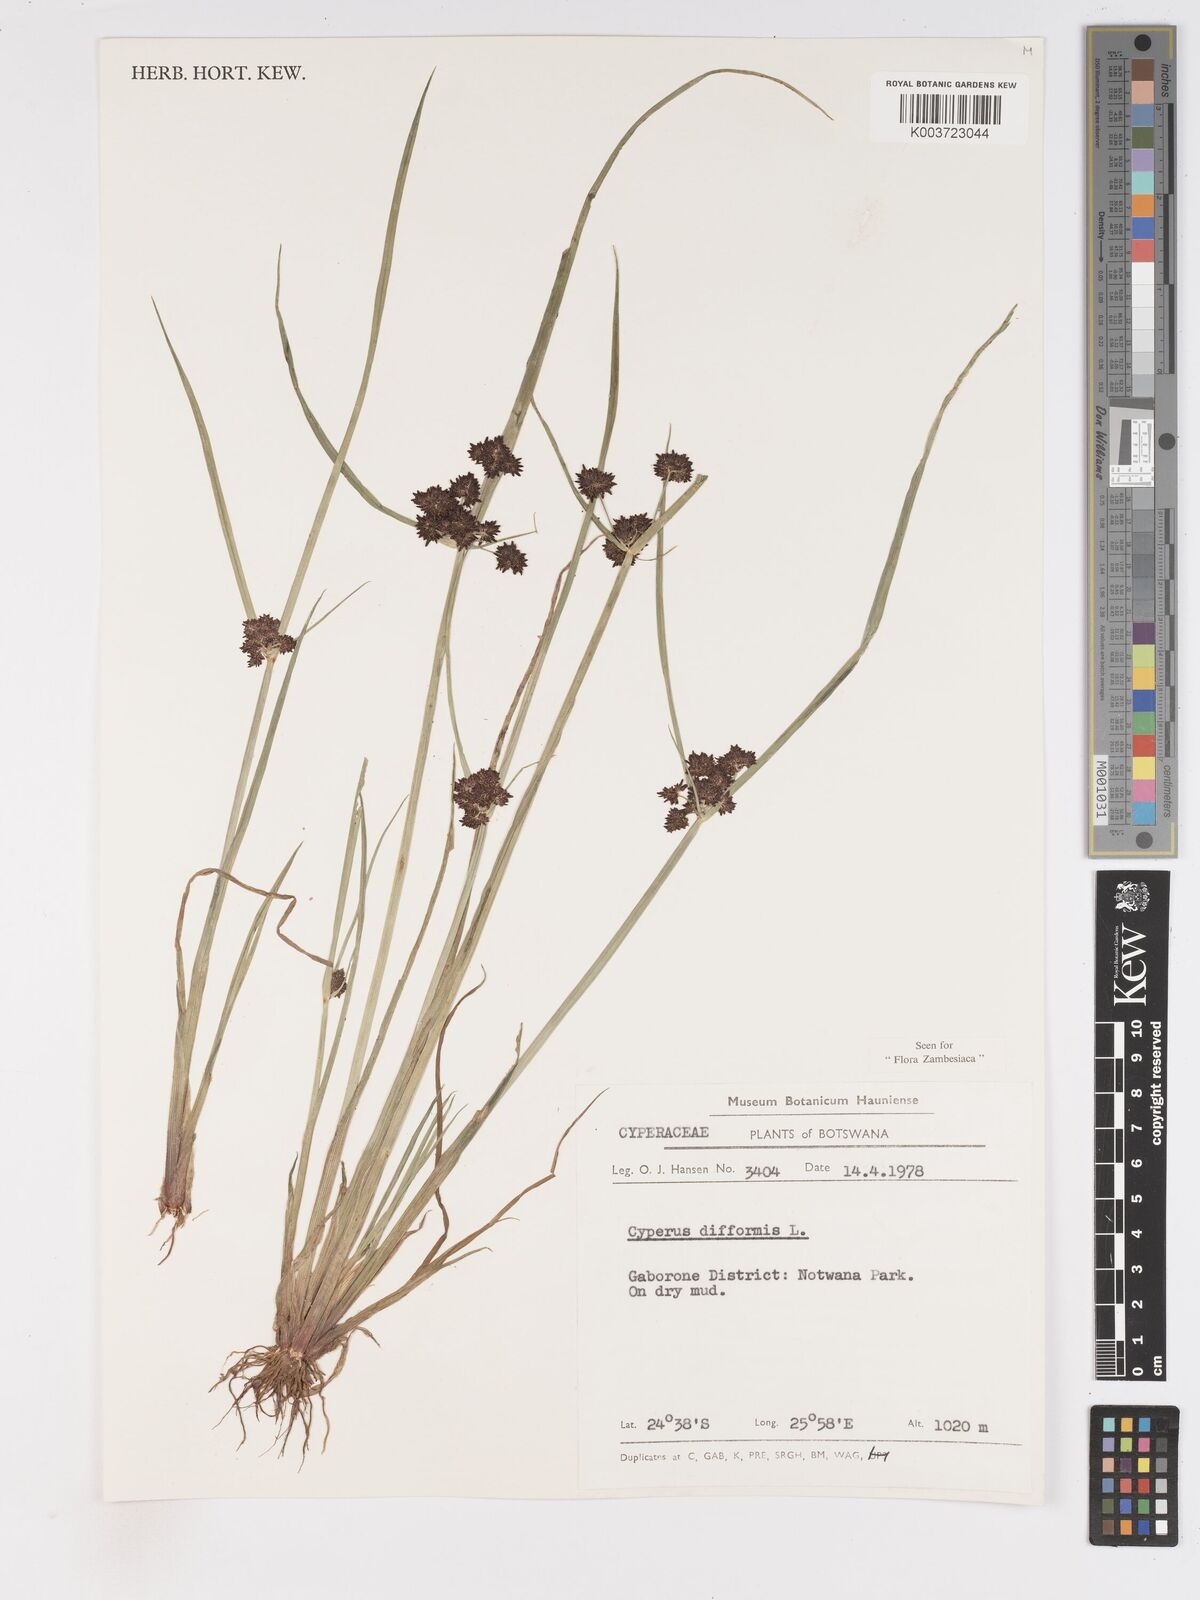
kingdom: Plantae
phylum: Tracheophyta
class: Liliopsida
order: Poales
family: Cyperaceae
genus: Cyperus
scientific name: Cyperus difformis
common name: Variable flatsedge
